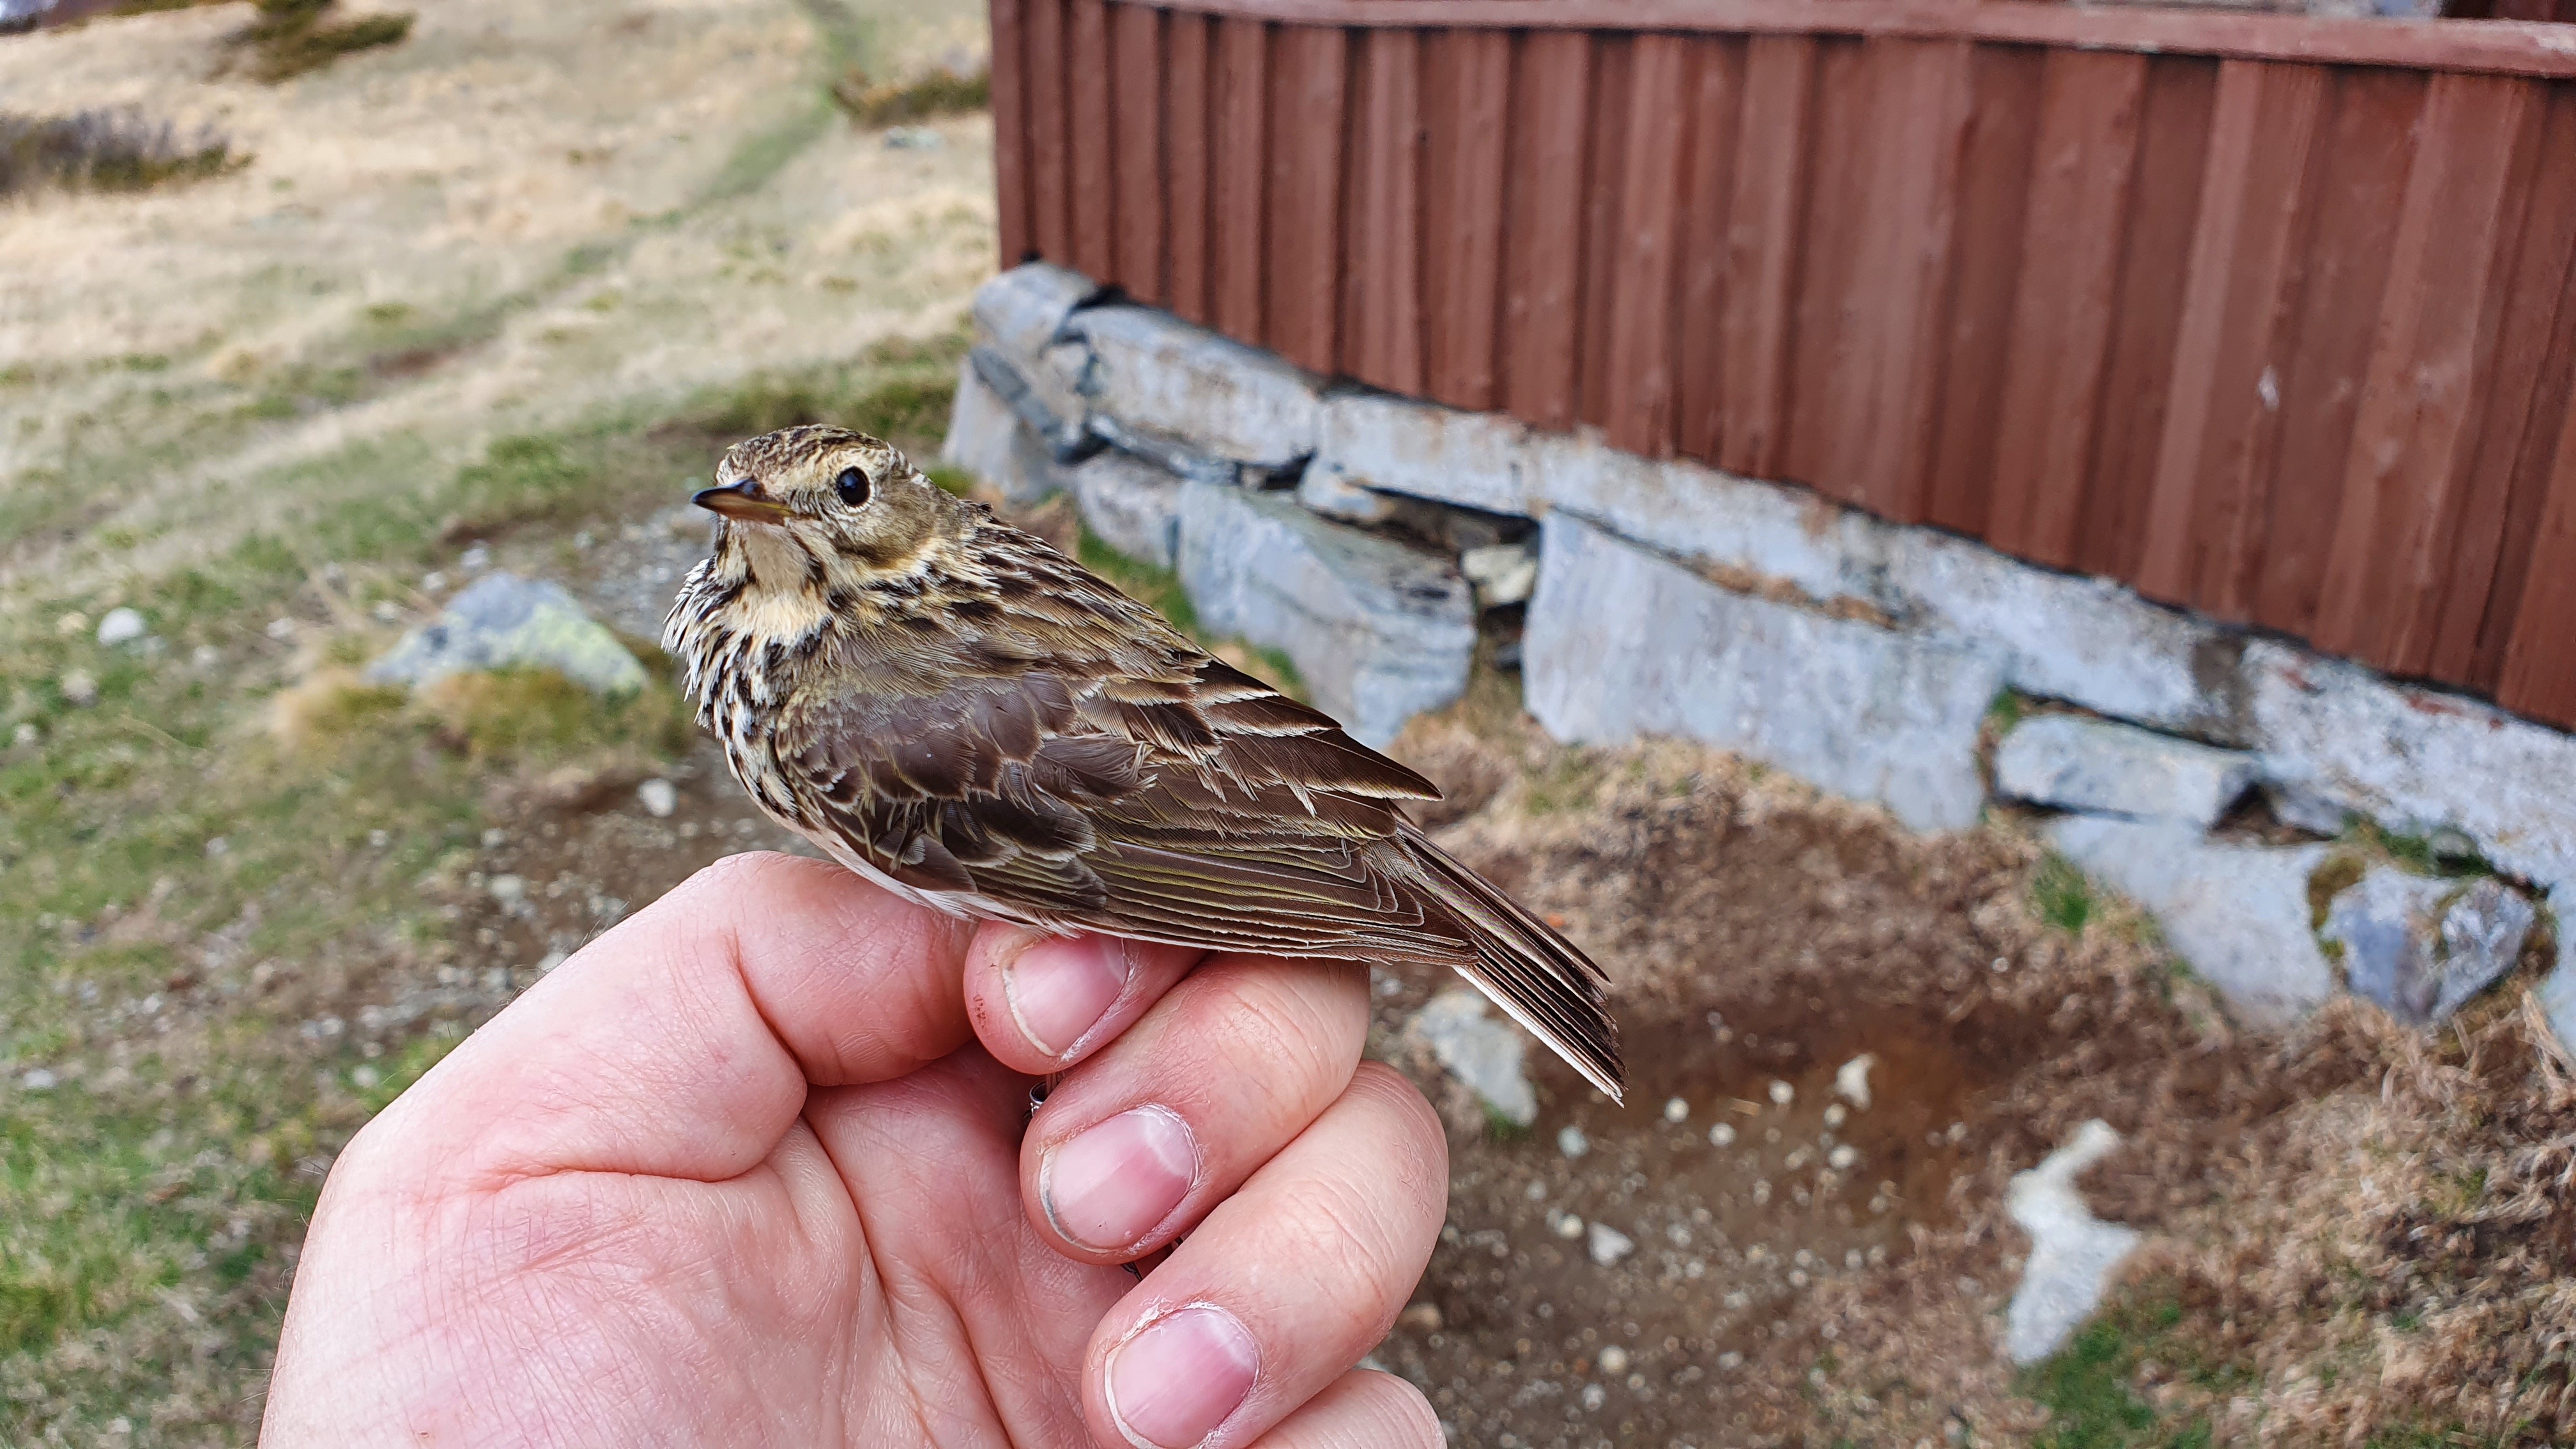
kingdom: Animalia
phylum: Chordata
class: Aves
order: Passeriformes
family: Motacillidae
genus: Anthus
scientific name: Anthus pratensis
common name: Meadow pipit
